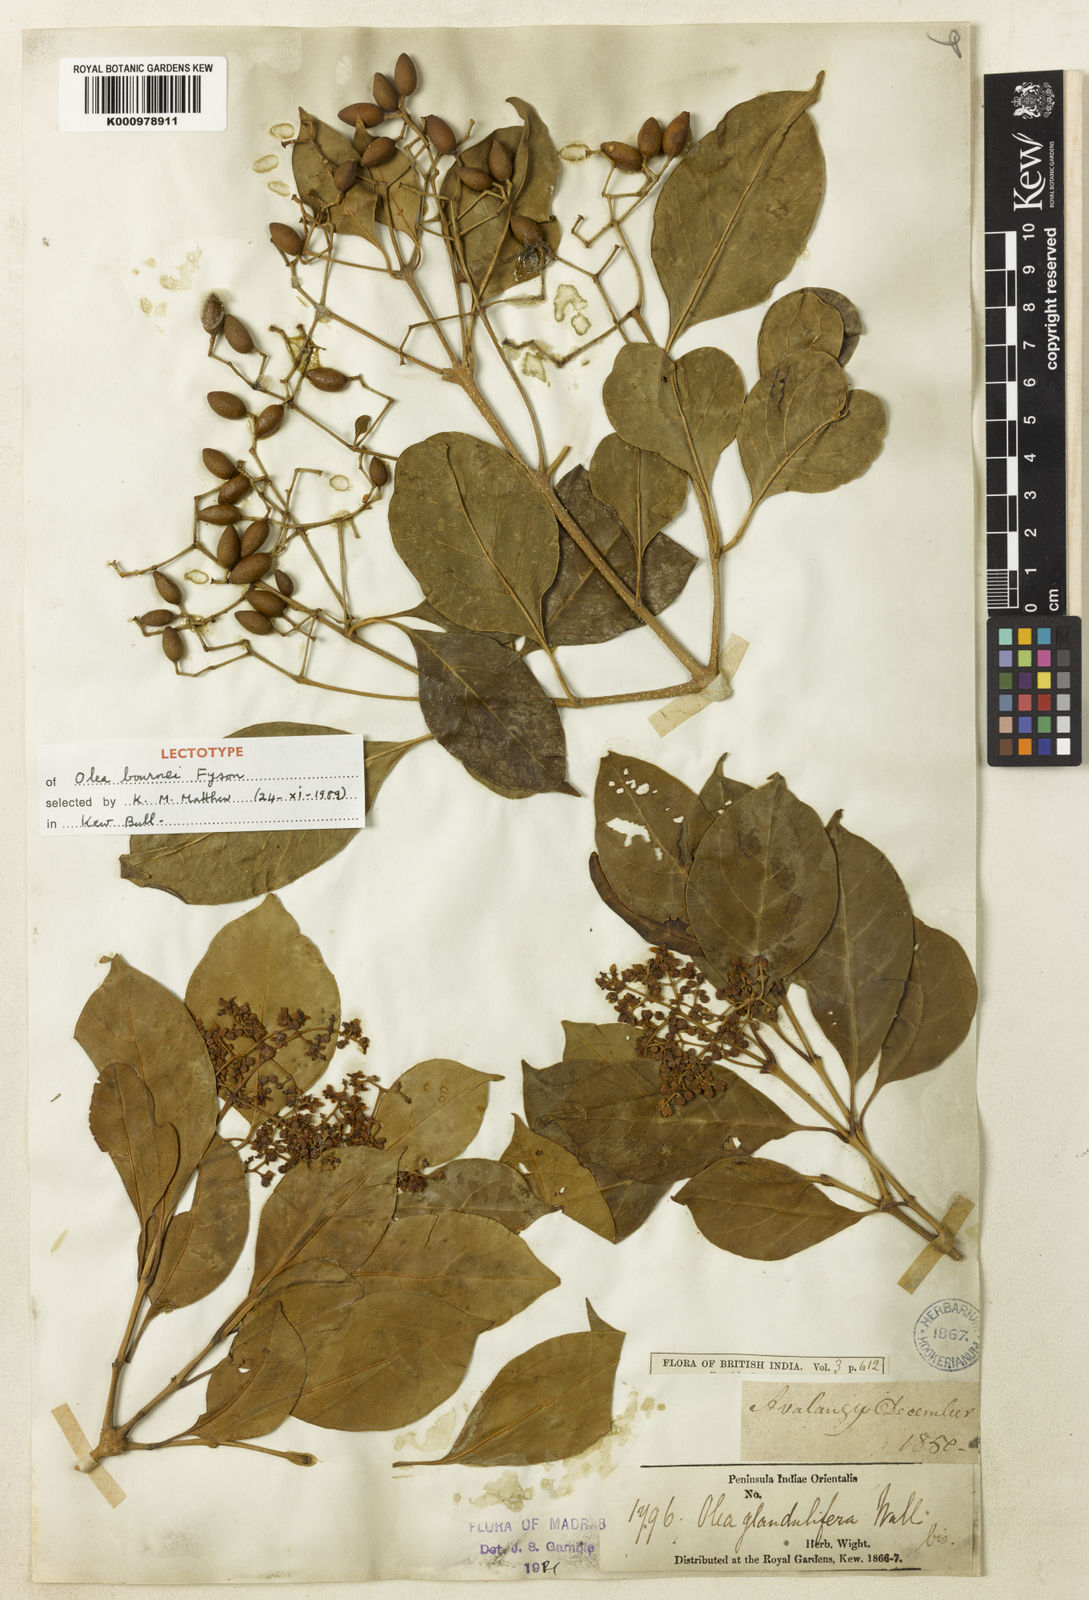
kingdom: Plantae
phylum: Tracheophyta
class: Magnoliopsida
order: Lamiales
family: Oleaceae
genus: Olea
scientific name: Olea paniculata
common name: Australian olive
